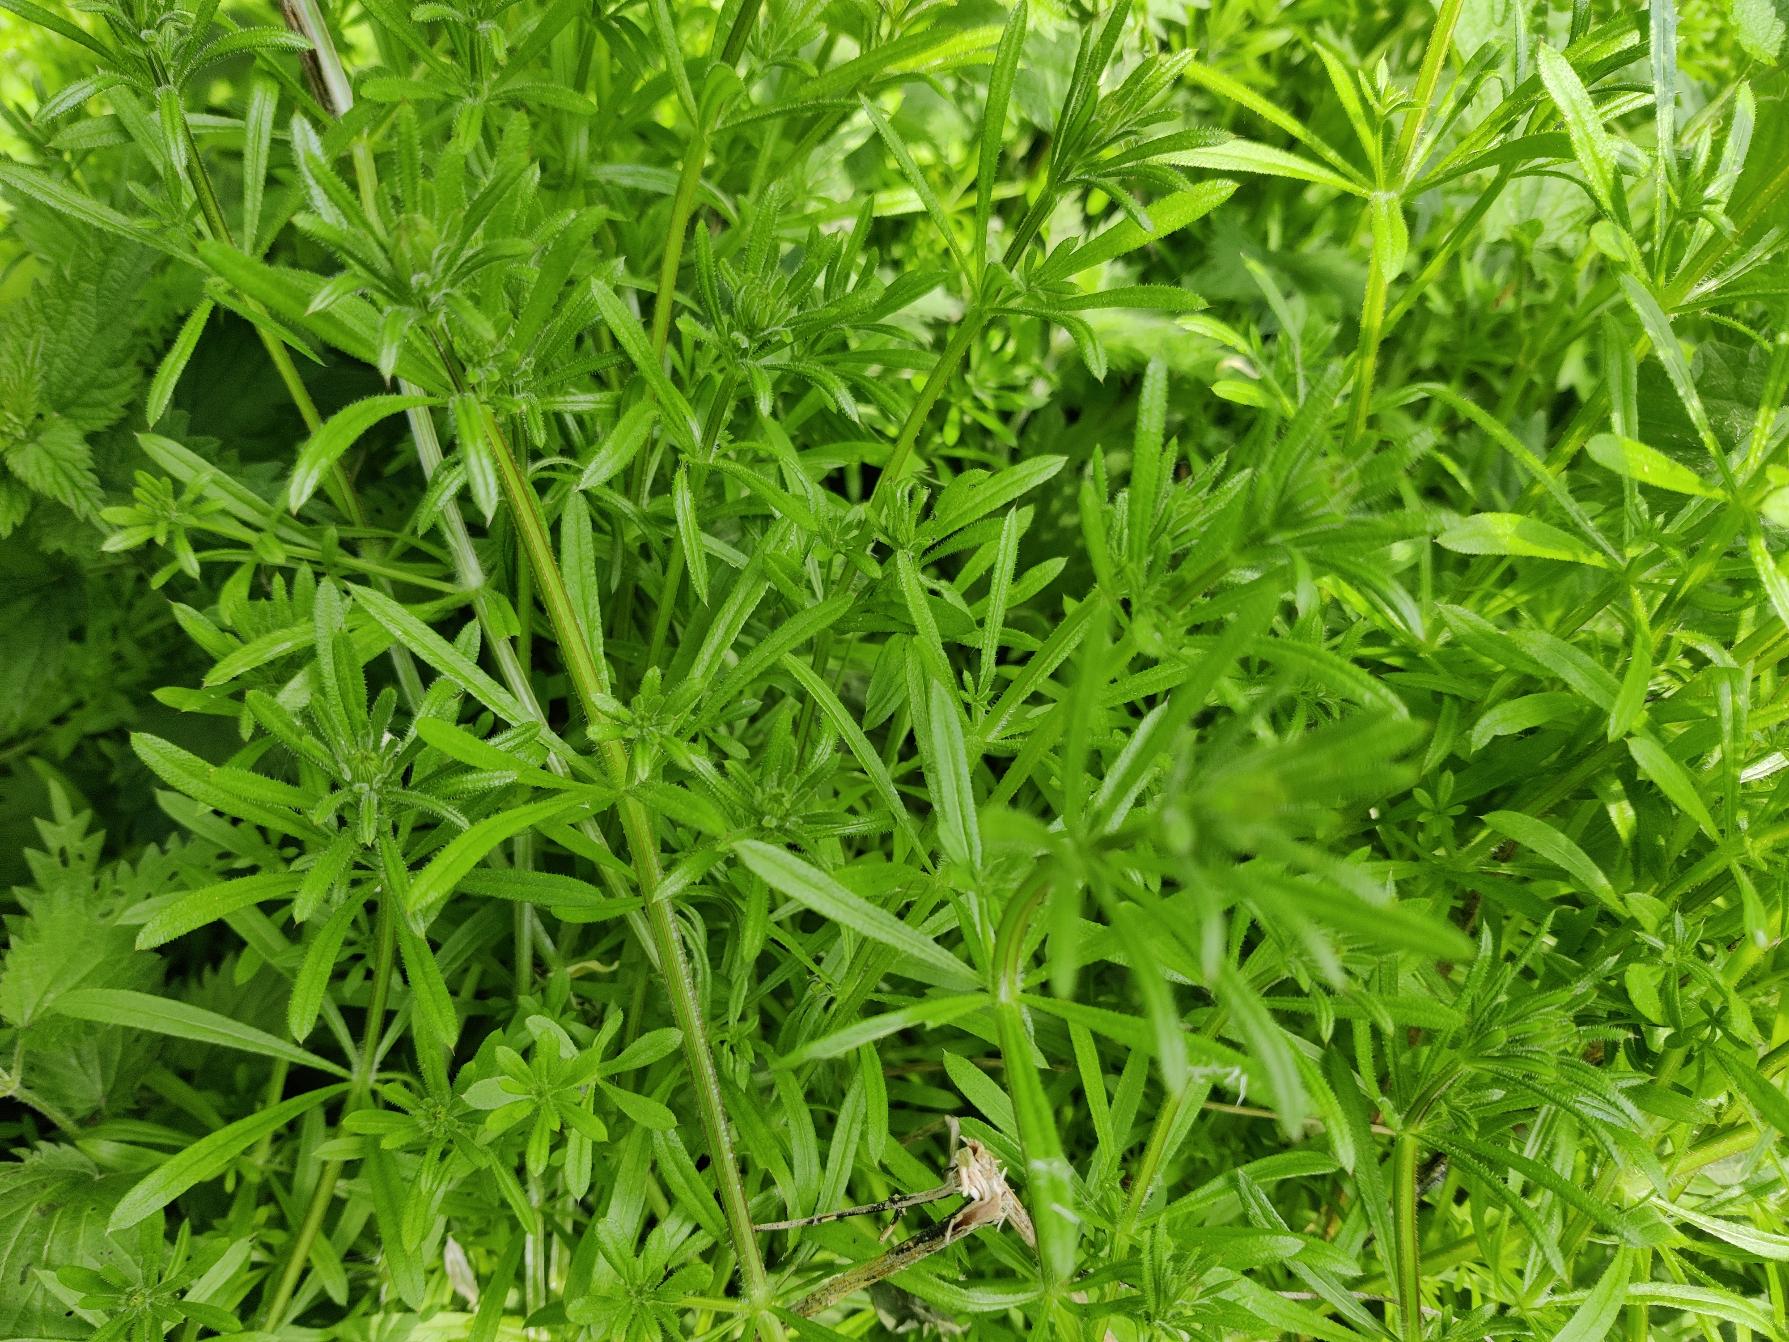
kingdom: Plantae
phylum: Tracheophyta
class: Magnoliopsida
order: Gentianales
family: Rubiaceae
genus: Galium
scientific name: Galium aparine
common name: Burre-snerre
